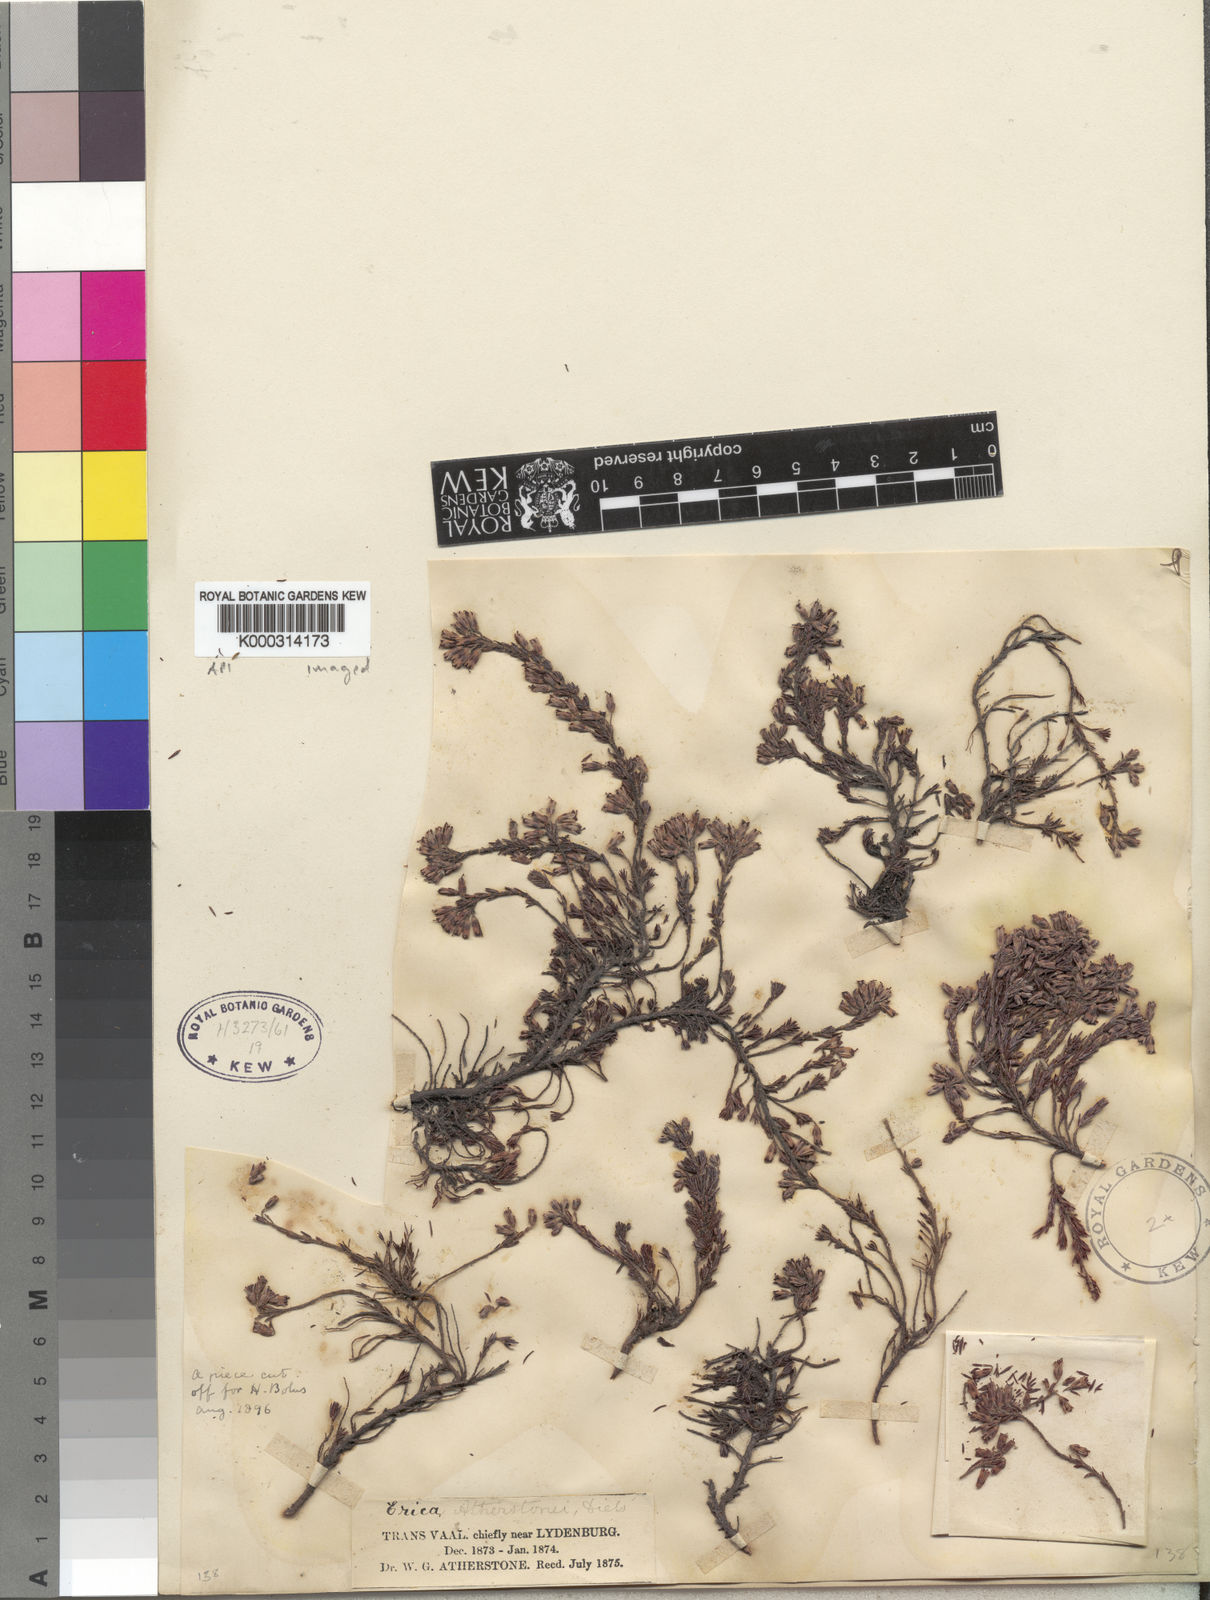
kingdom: Plantae
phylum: Tracheophyta
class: Magnoliopsida
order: Ericales
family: Ericaceae
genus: Erica
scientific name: Erica atherstonei
